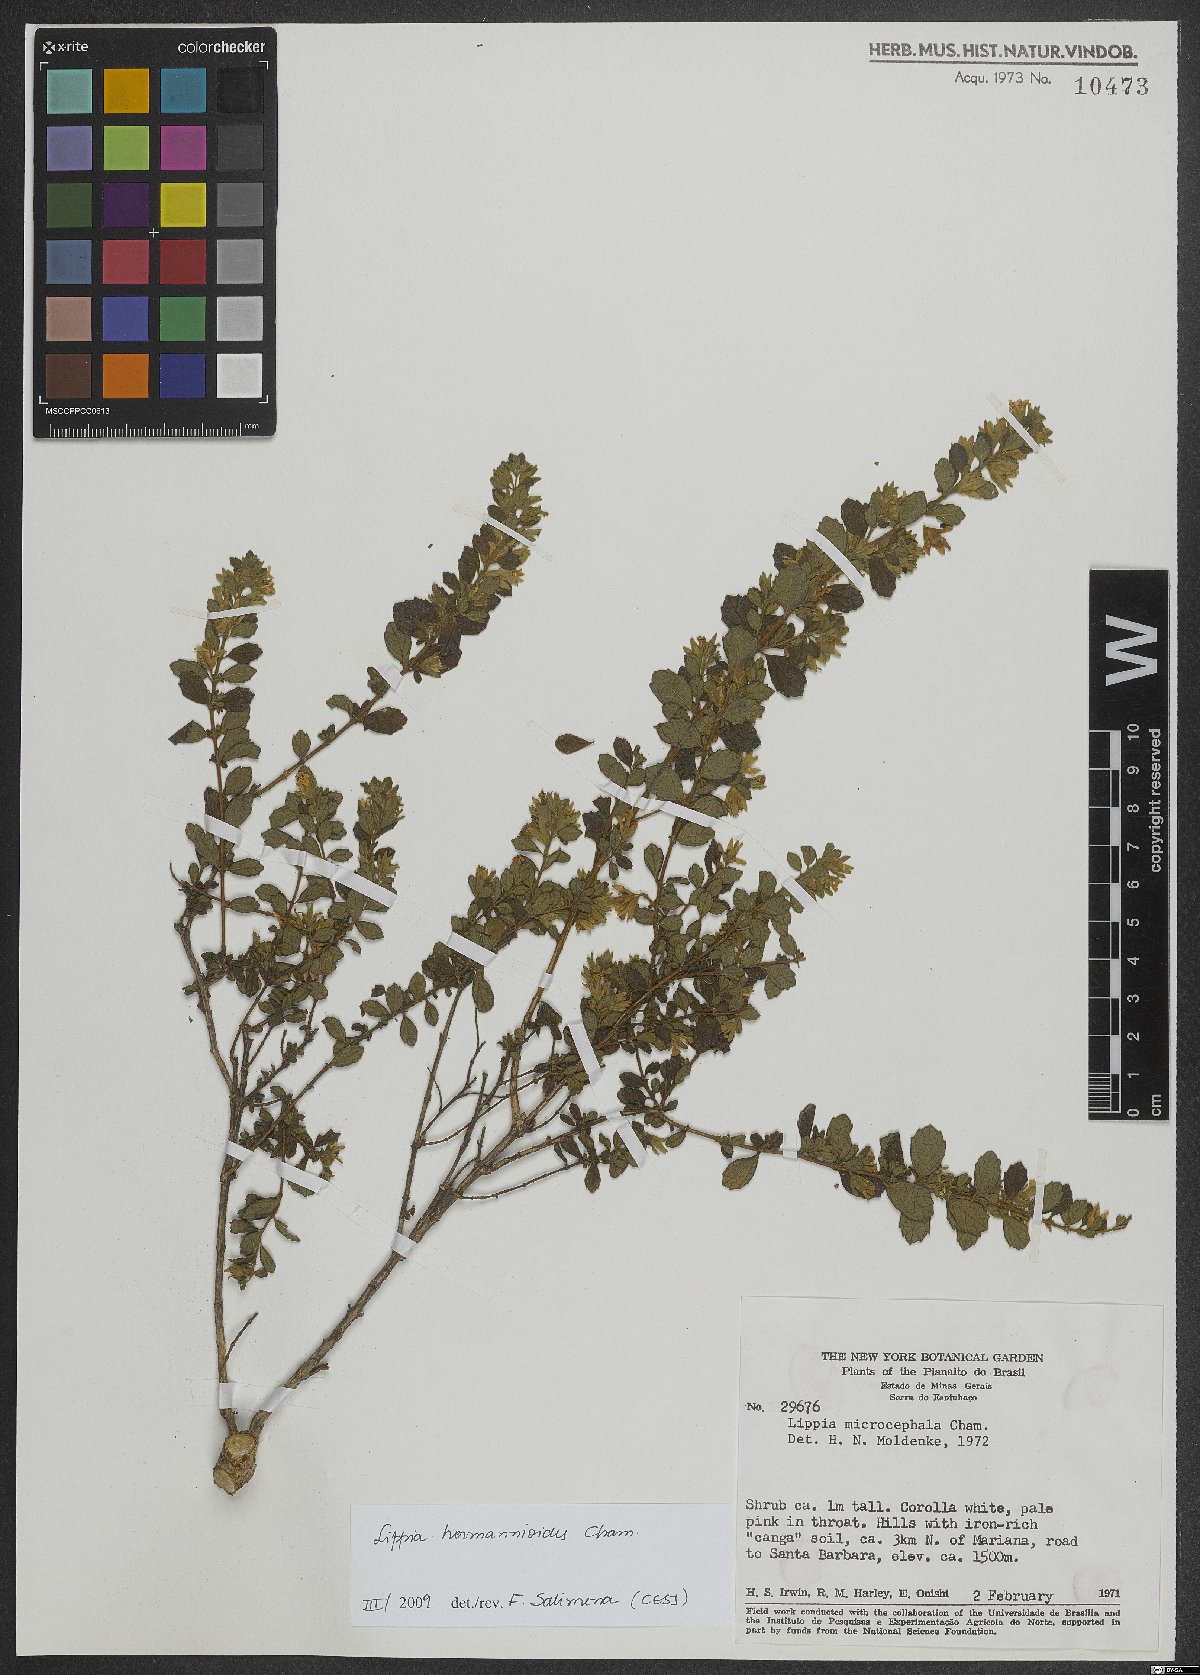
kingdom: Plantae
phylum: Tracheophyta
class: Magnoliopsida
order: Lamiales
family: Verbenaceae
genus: Lippia
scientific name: Lippia hermannioides
